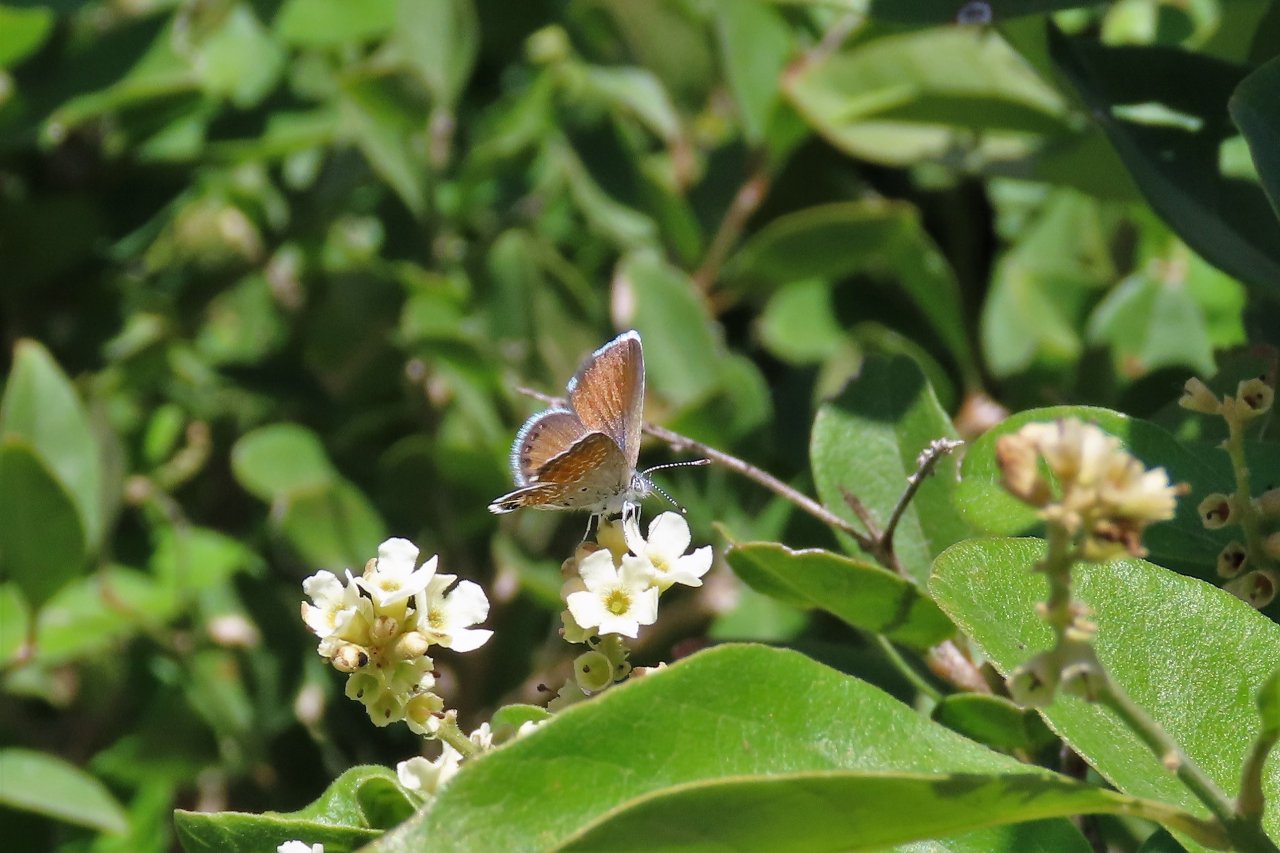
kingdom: Animalia
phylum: Arthropoda
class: Insecta
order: Lepidoptera
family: Lycaenidae
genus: Brephidium
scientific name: Brephidium exilis
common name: Western Pygmy-Blue
